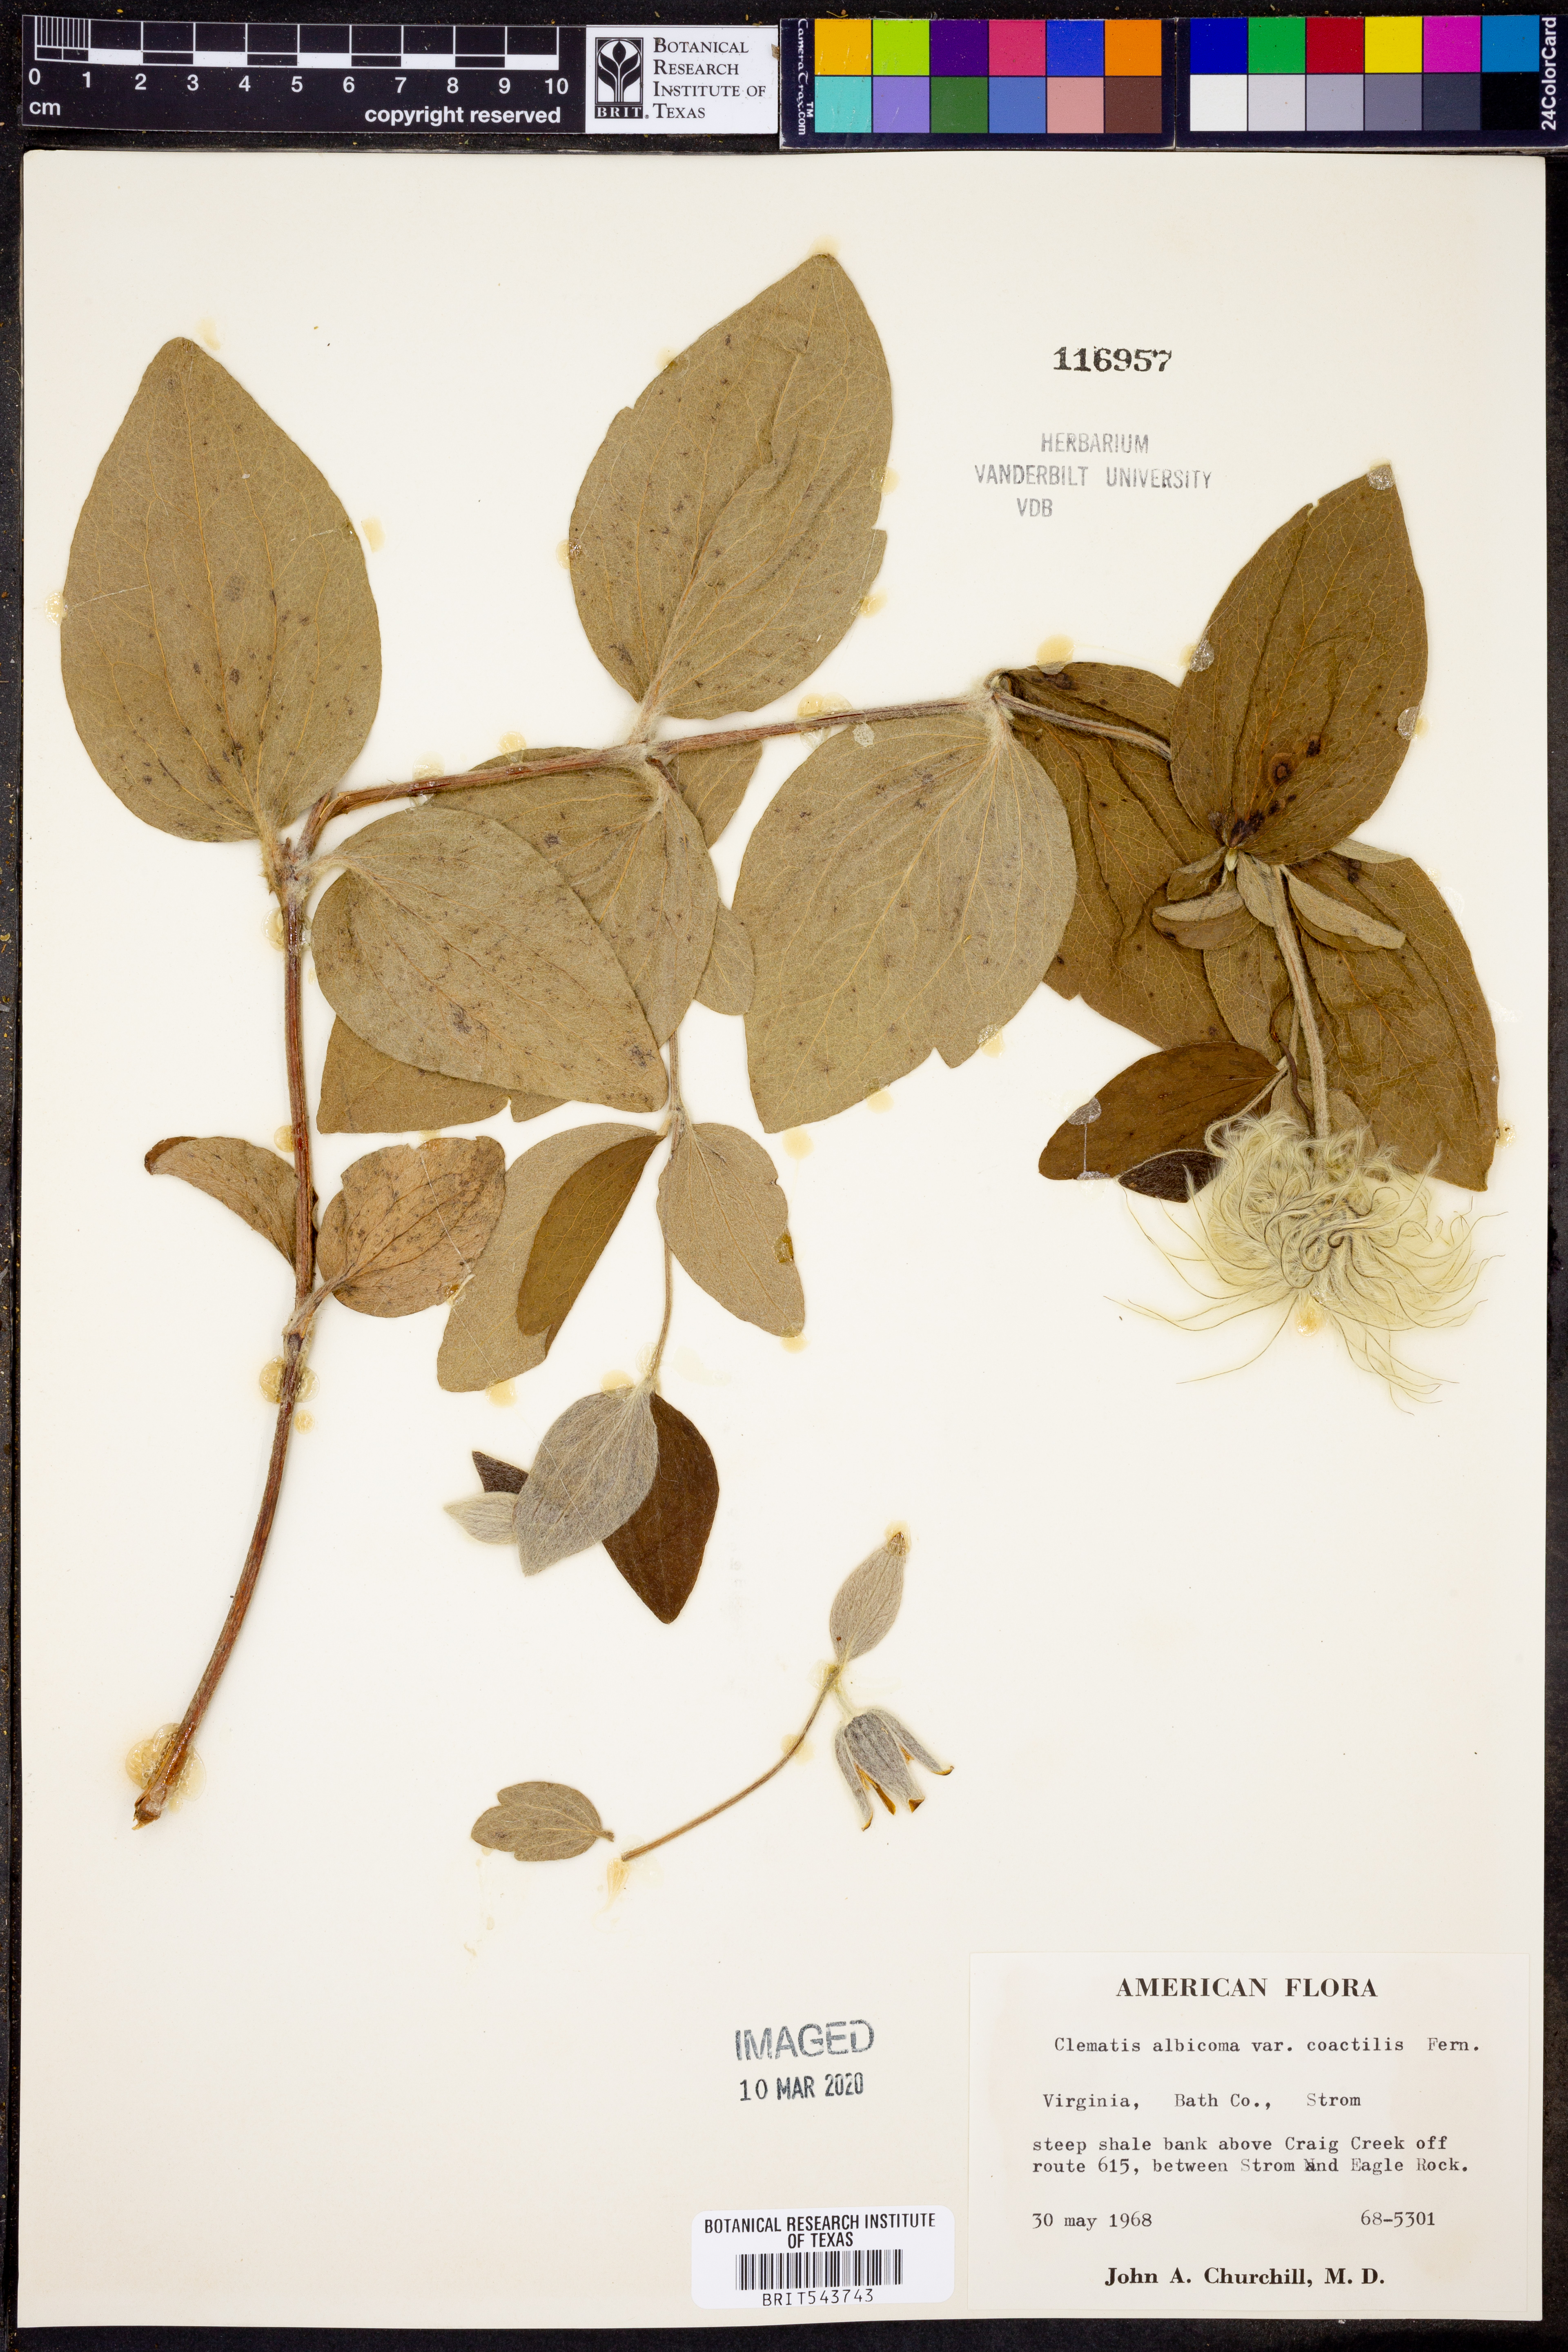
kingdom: Plantae
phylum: Tracheophyta
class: Magnoliopsida
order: Ranunculales
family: Ranunculaceae
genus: Clematis
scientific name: Clematis coactilis
